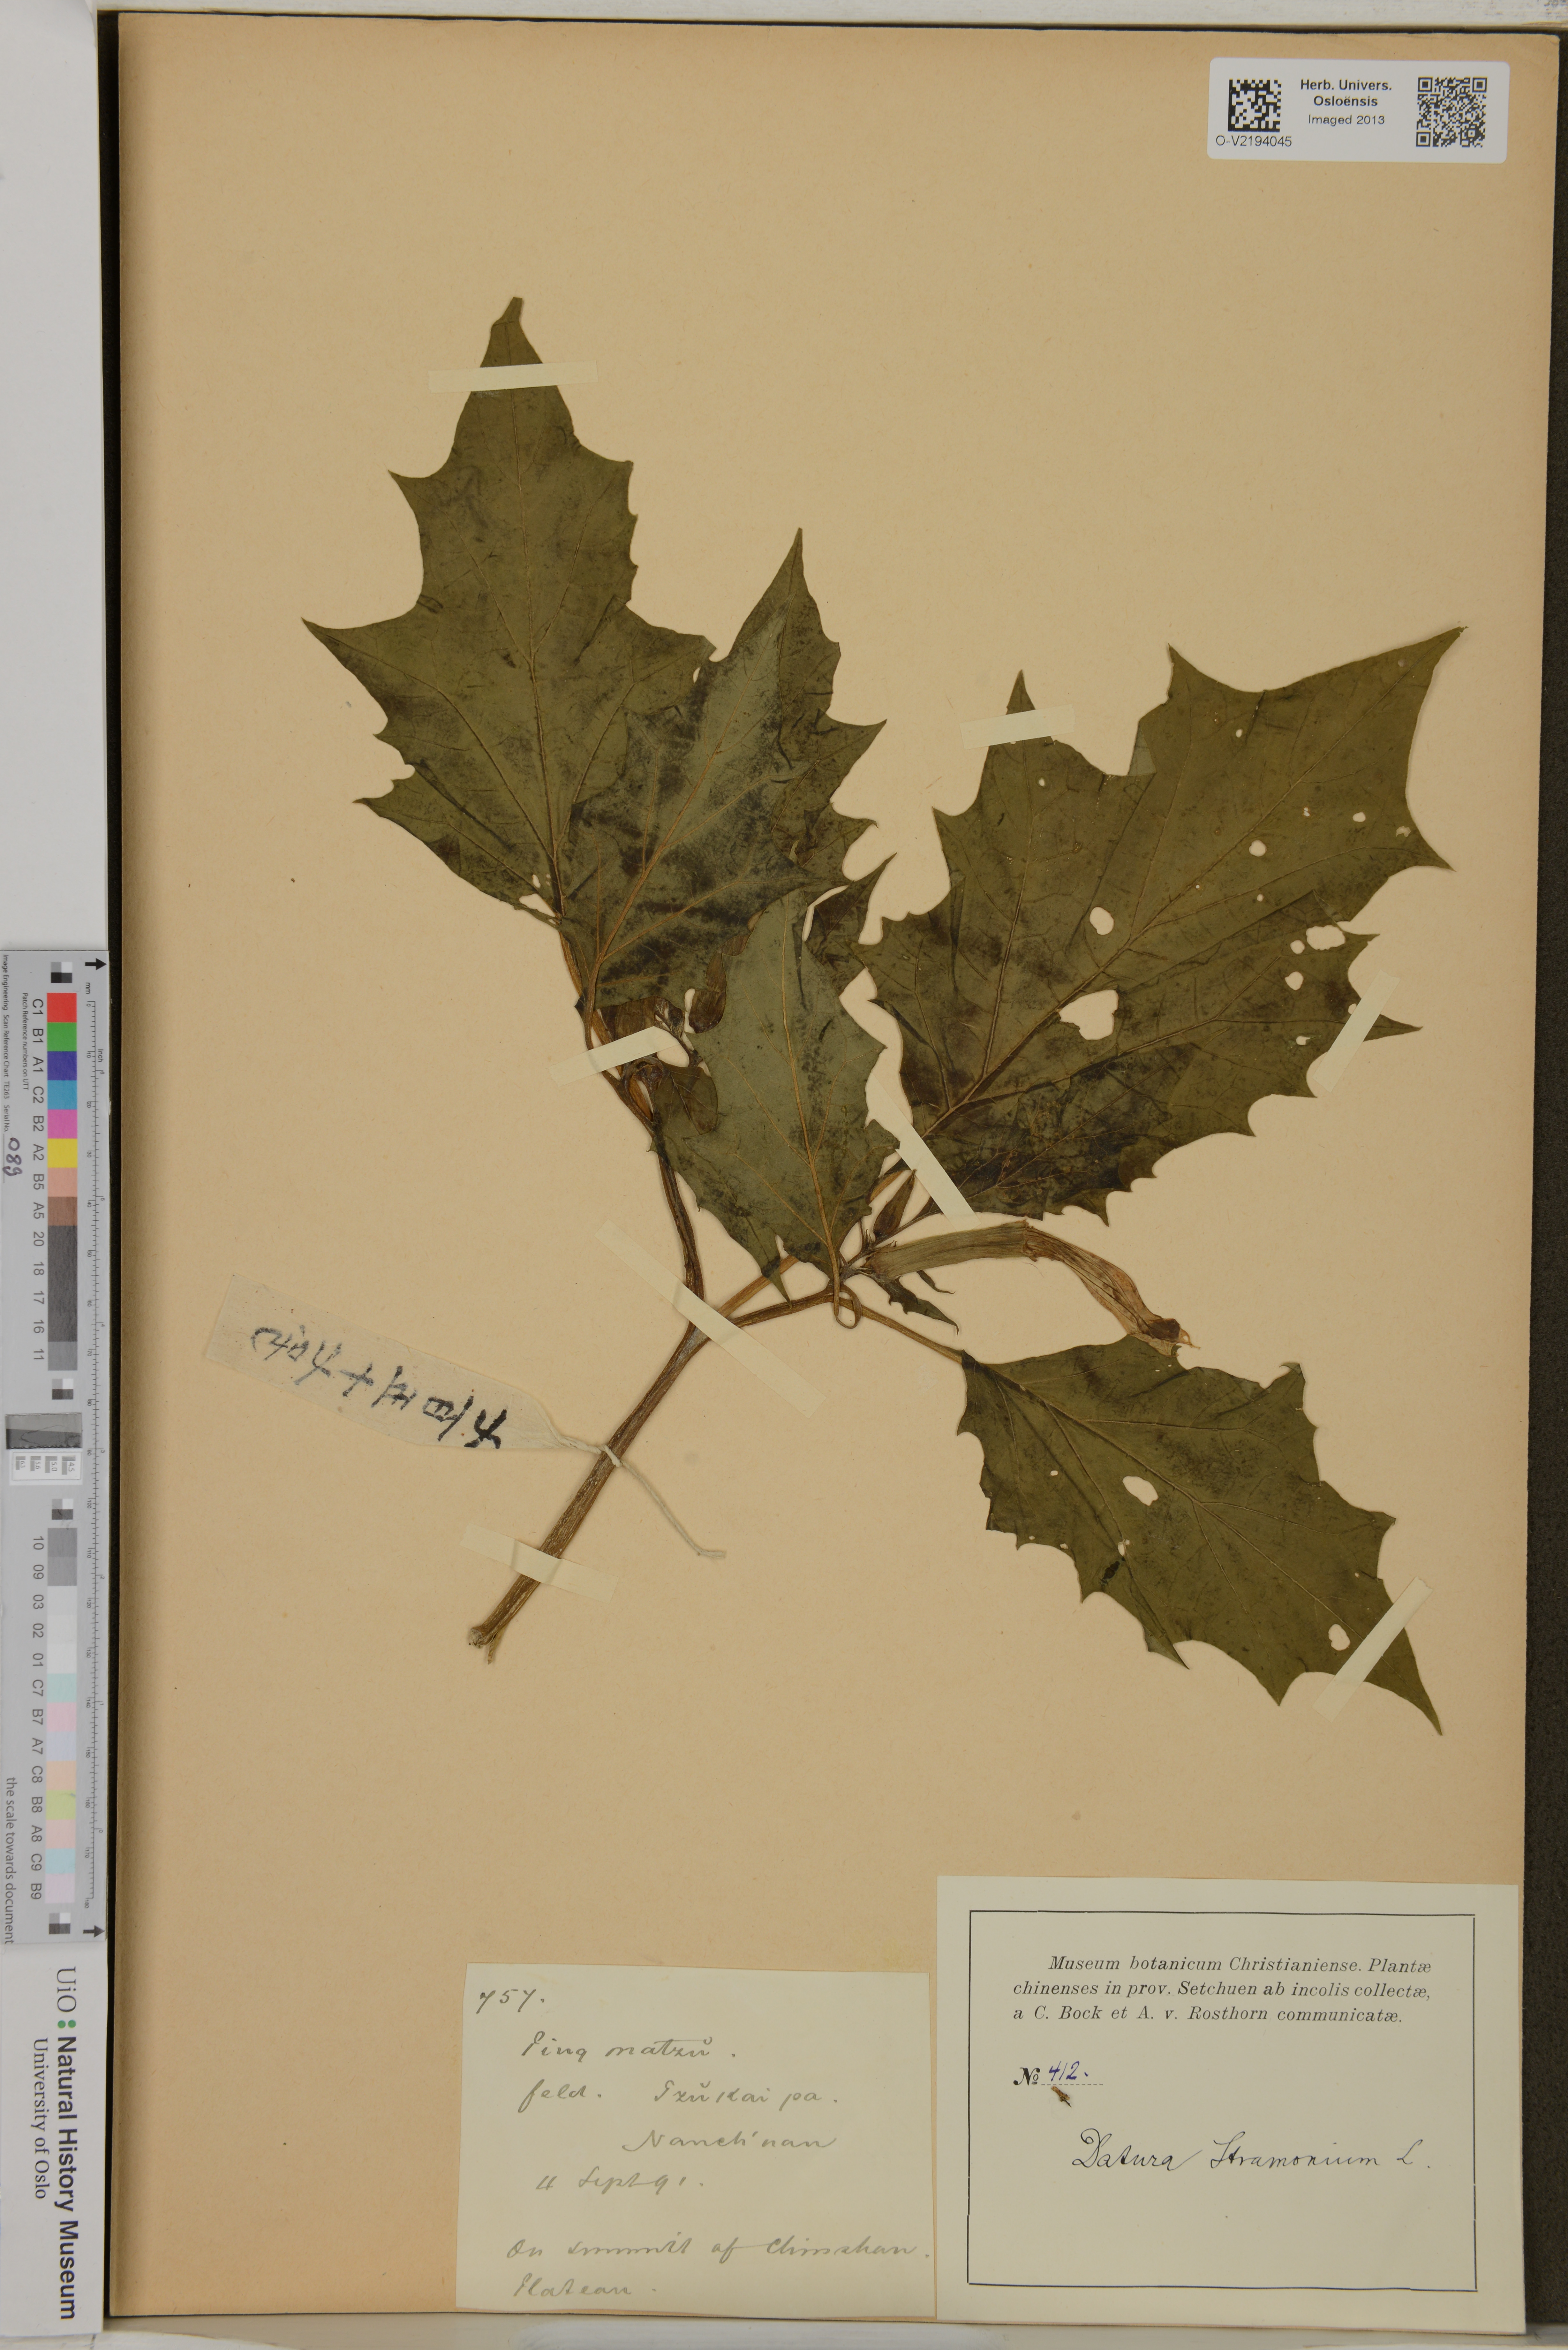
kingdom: Plantae
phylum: Tracheophyta
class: Magnoliopsida
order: Solanales
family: Solanaceae
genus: Datura
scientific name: Datura stramonium
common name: Thorn-apple
